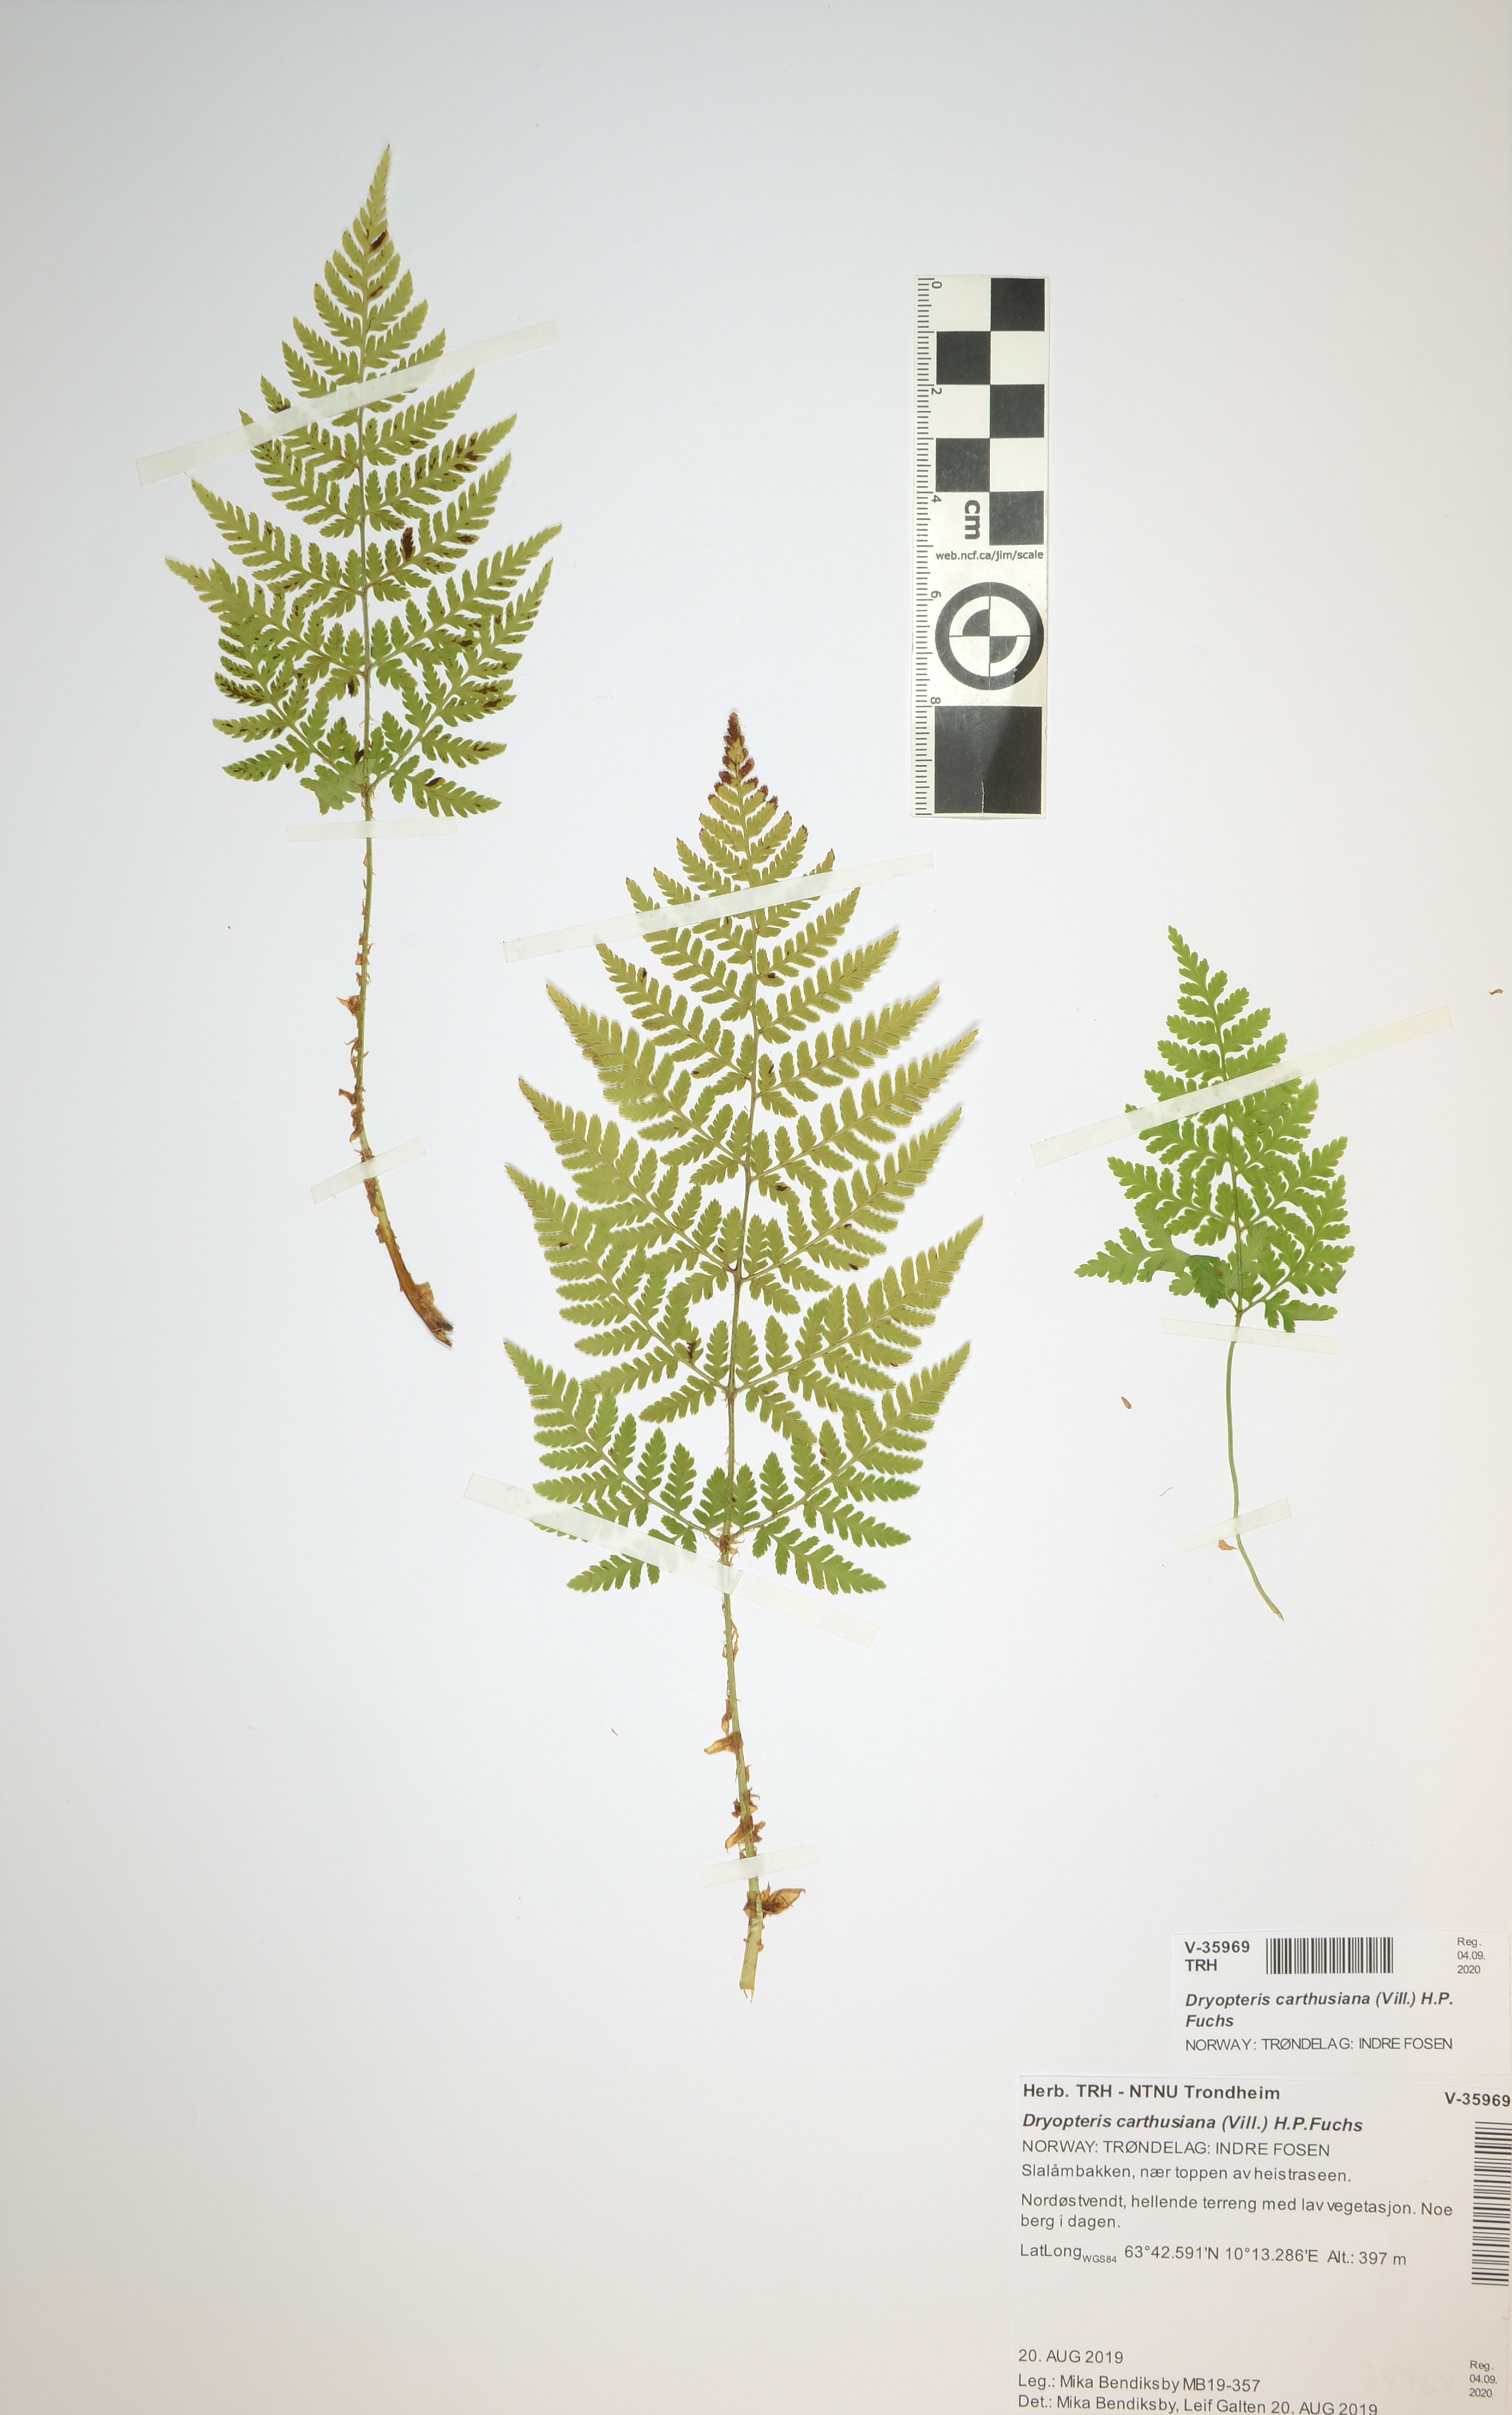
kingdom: Plantae
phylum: Tracheophyta
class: Polypodiopsida
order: Polypodiales
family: Dryopteridaceae
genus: Dryopteris
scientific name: Dryopteris carthusiana
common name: Narrow buckler-fern
